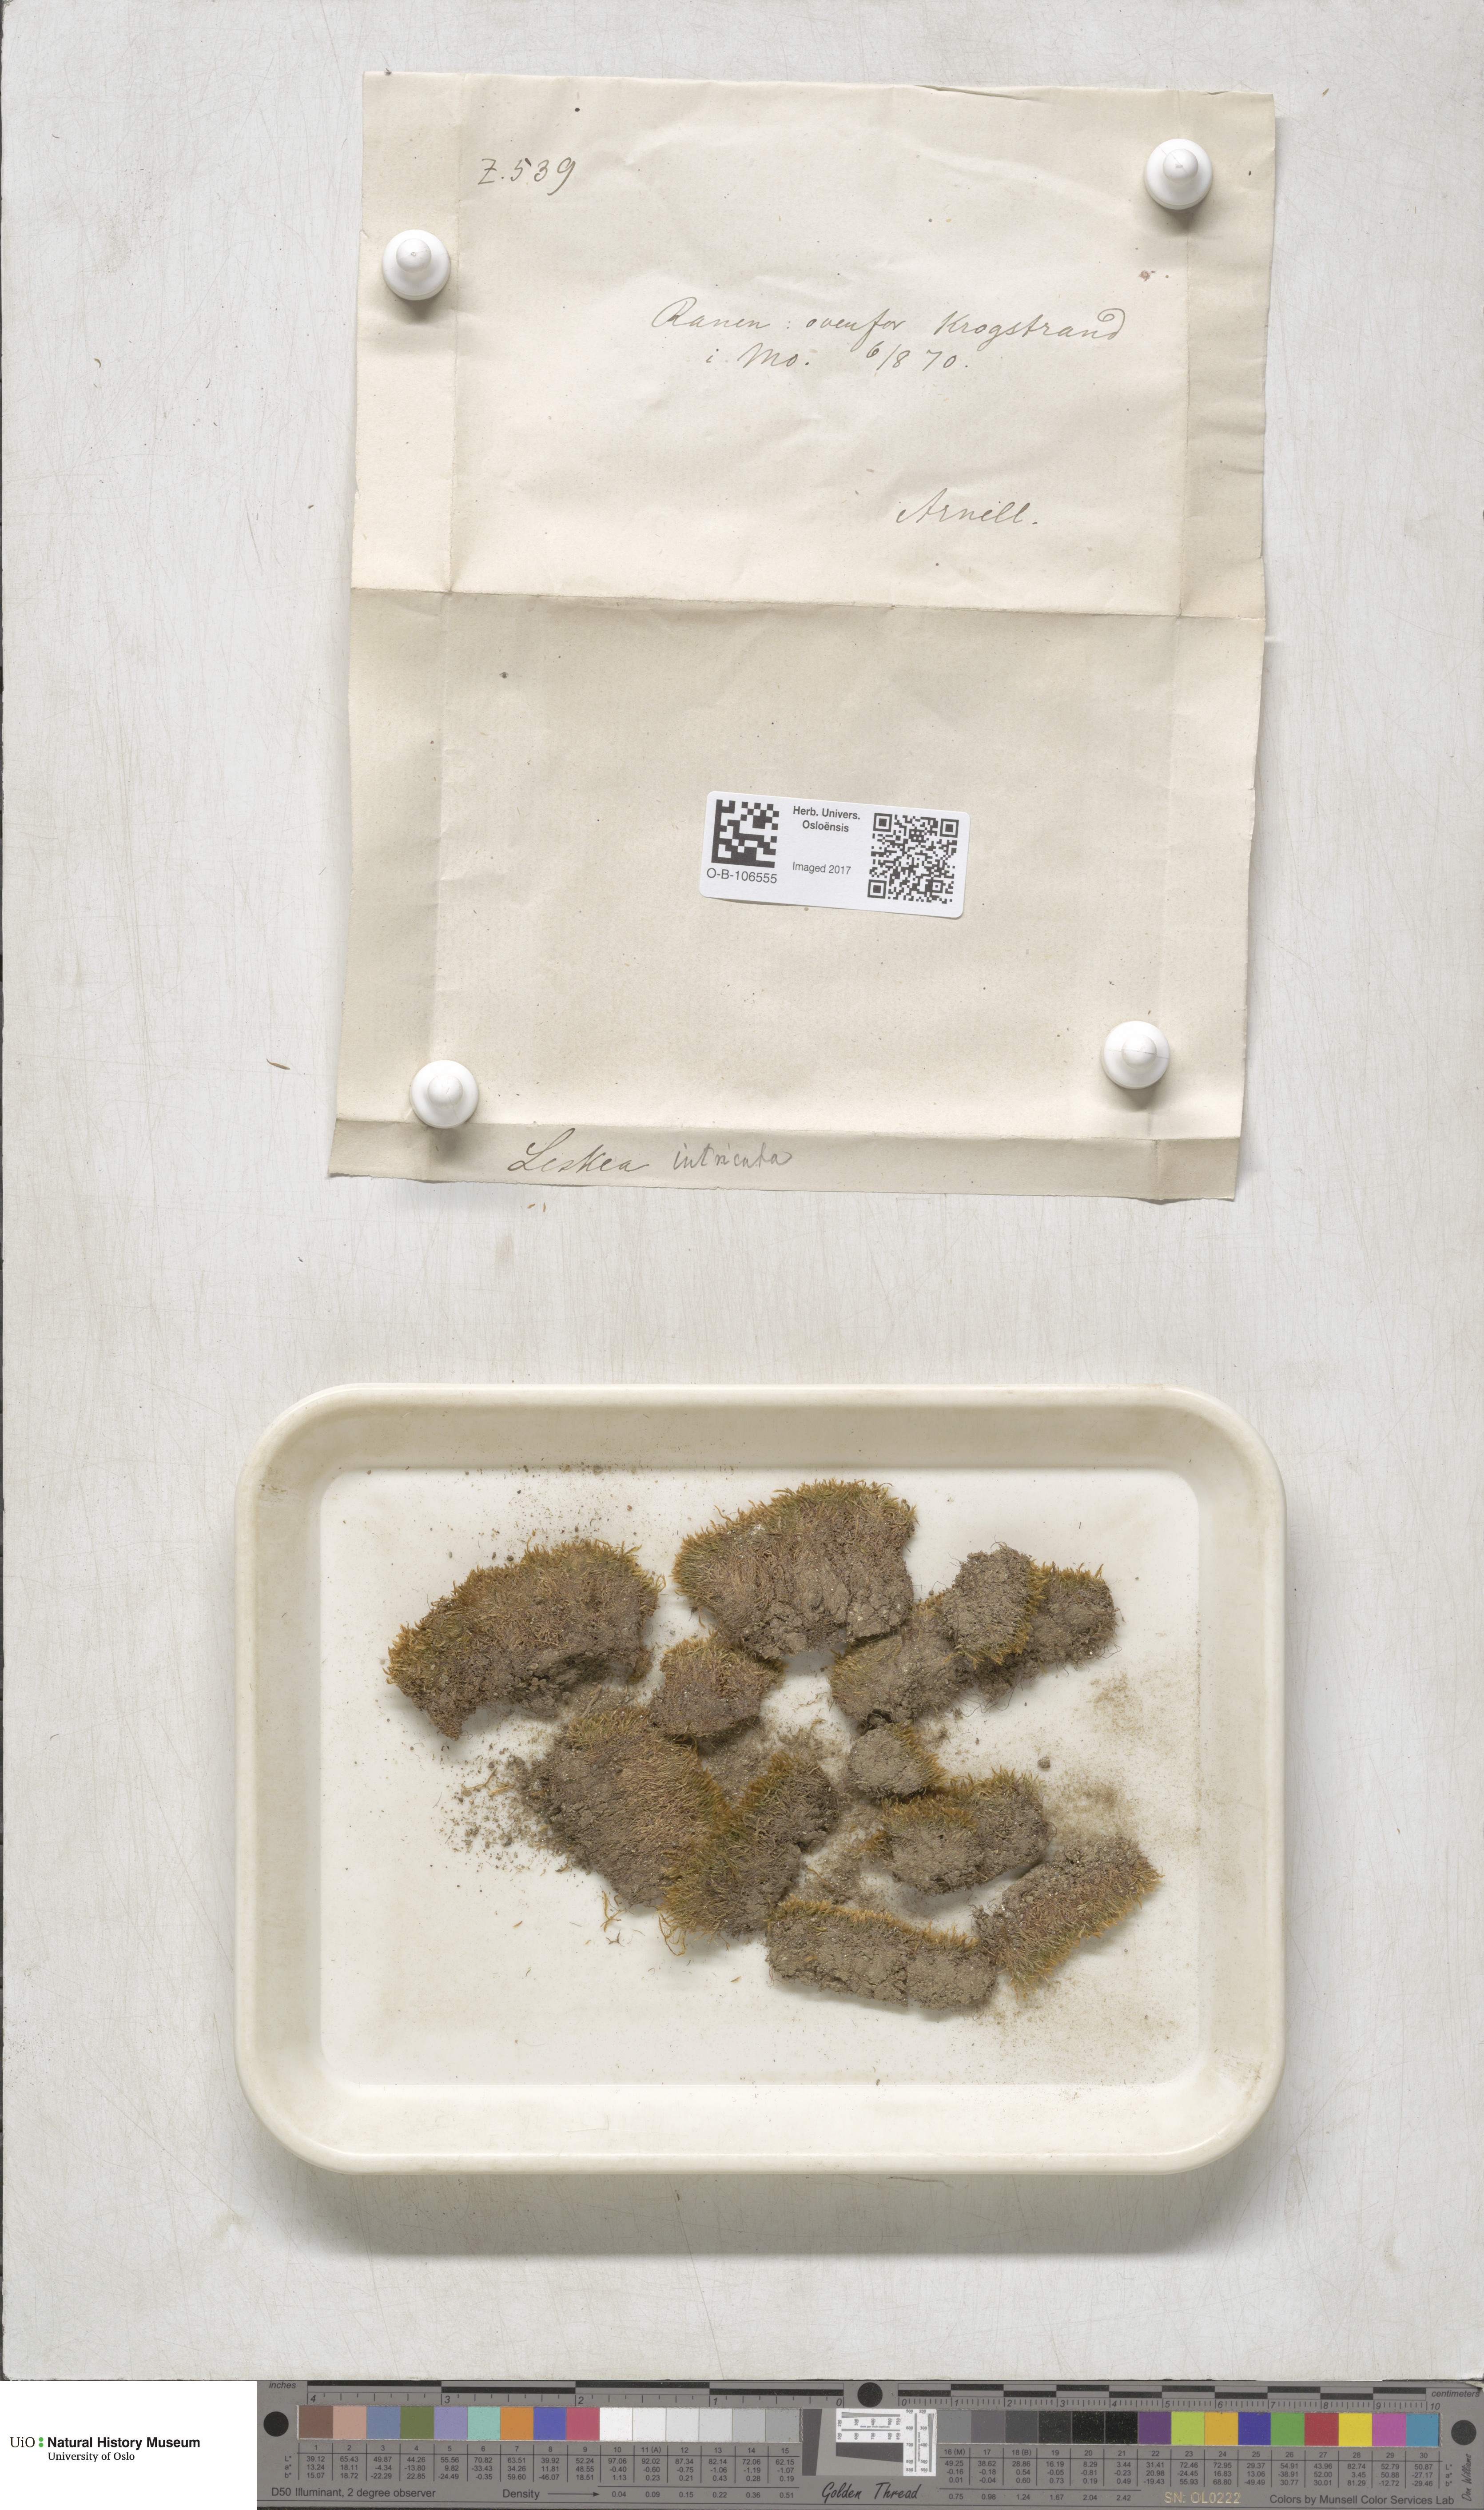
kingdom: Plantae
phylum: Bryophyta
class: Bryopsida
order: Hypnales
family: Plagiotheciaceae
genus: Orthothecium
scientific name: Orthothecium intricatum
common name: Fine-leaved erect-capsule moss
